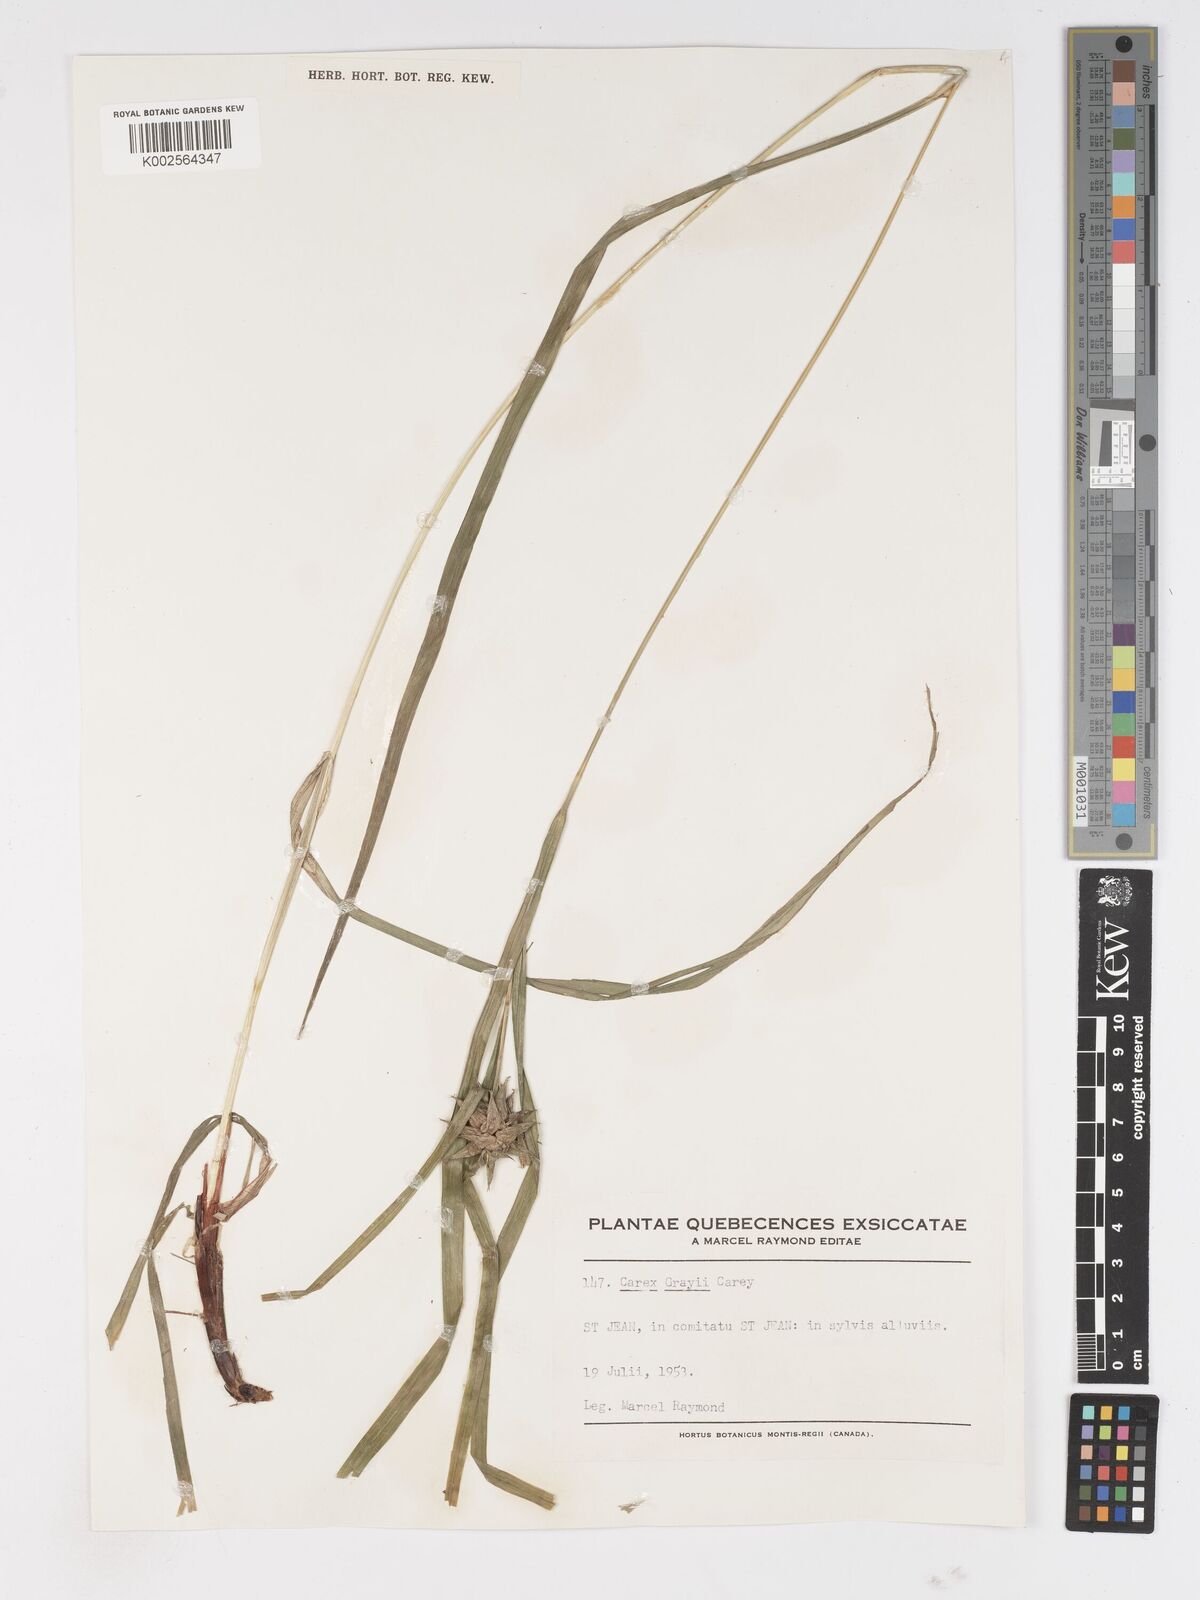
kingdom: Plantae
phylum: Tracheophyta
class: Liliopsida
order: Poales
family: Cyperaceae
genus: Carex
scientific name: Carex grayi
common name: Asa gray's sedge
